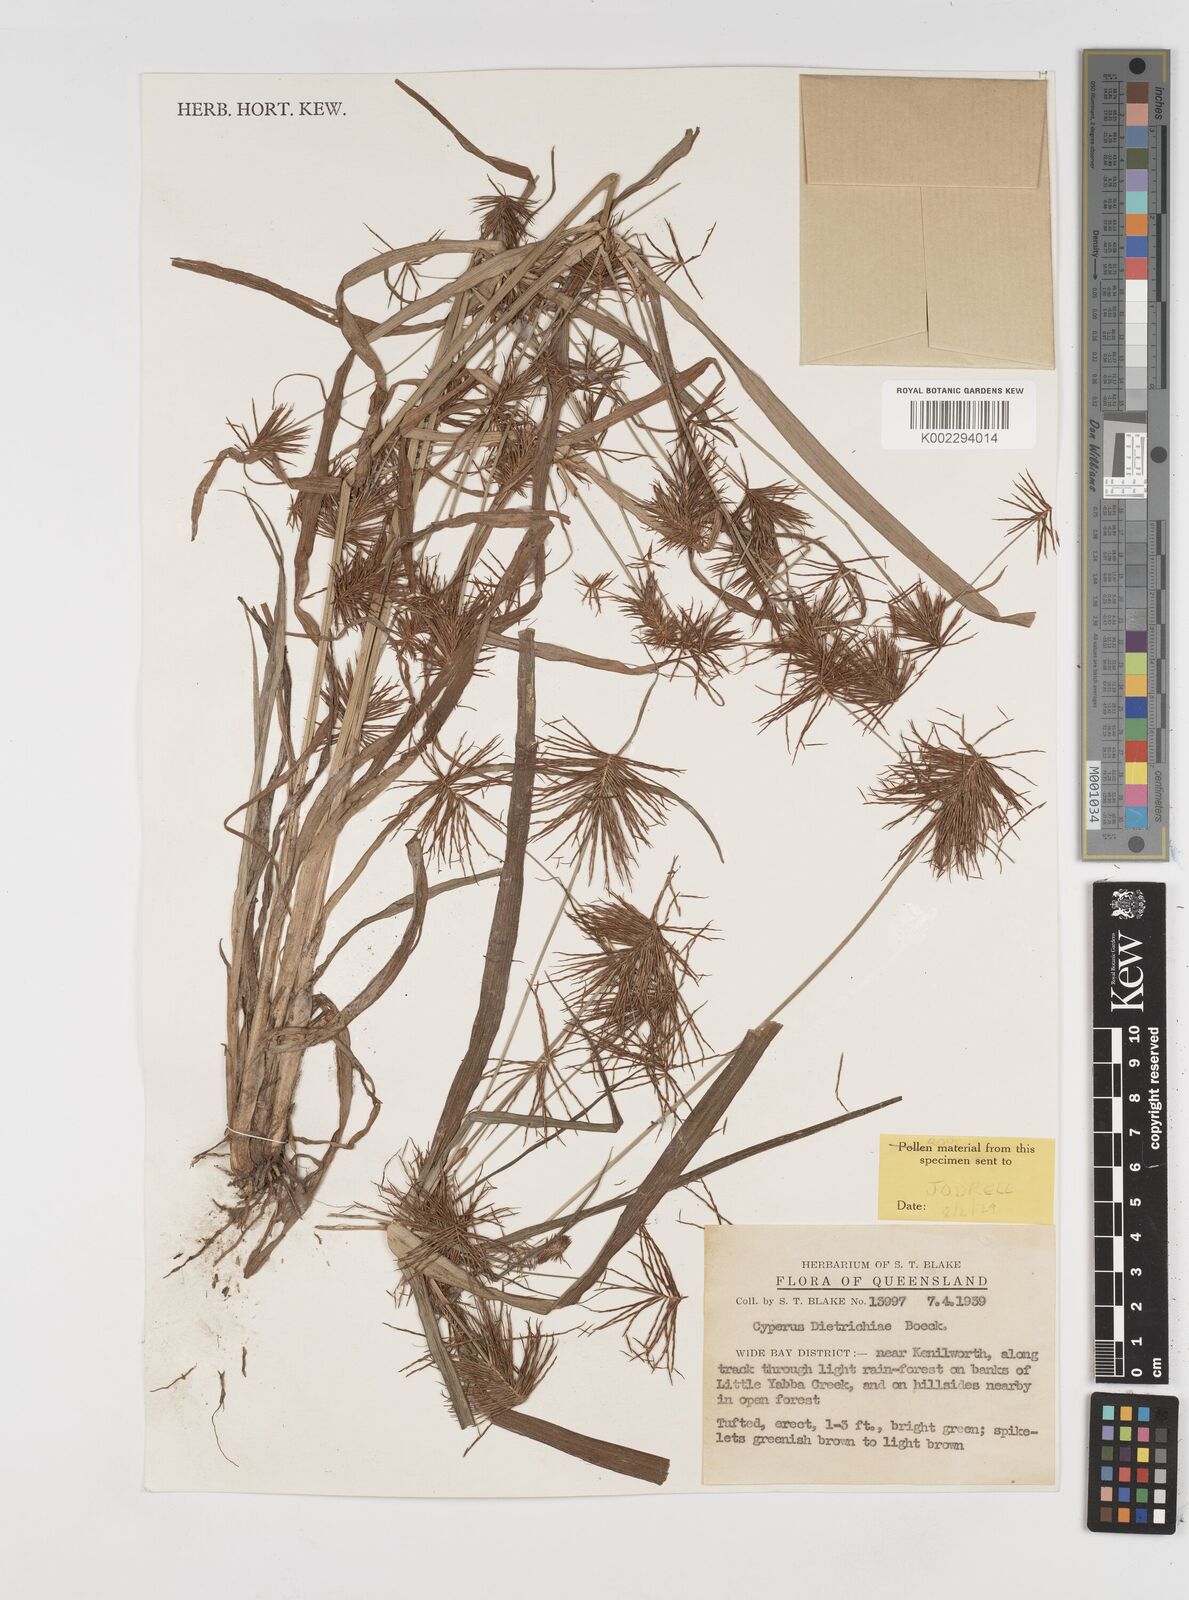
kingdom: Plantae
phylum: Tracheophyta
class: Liliopsida
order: Poales
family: Cyperaceae
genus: Cyperus
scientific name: Cyperus dietrichiae
